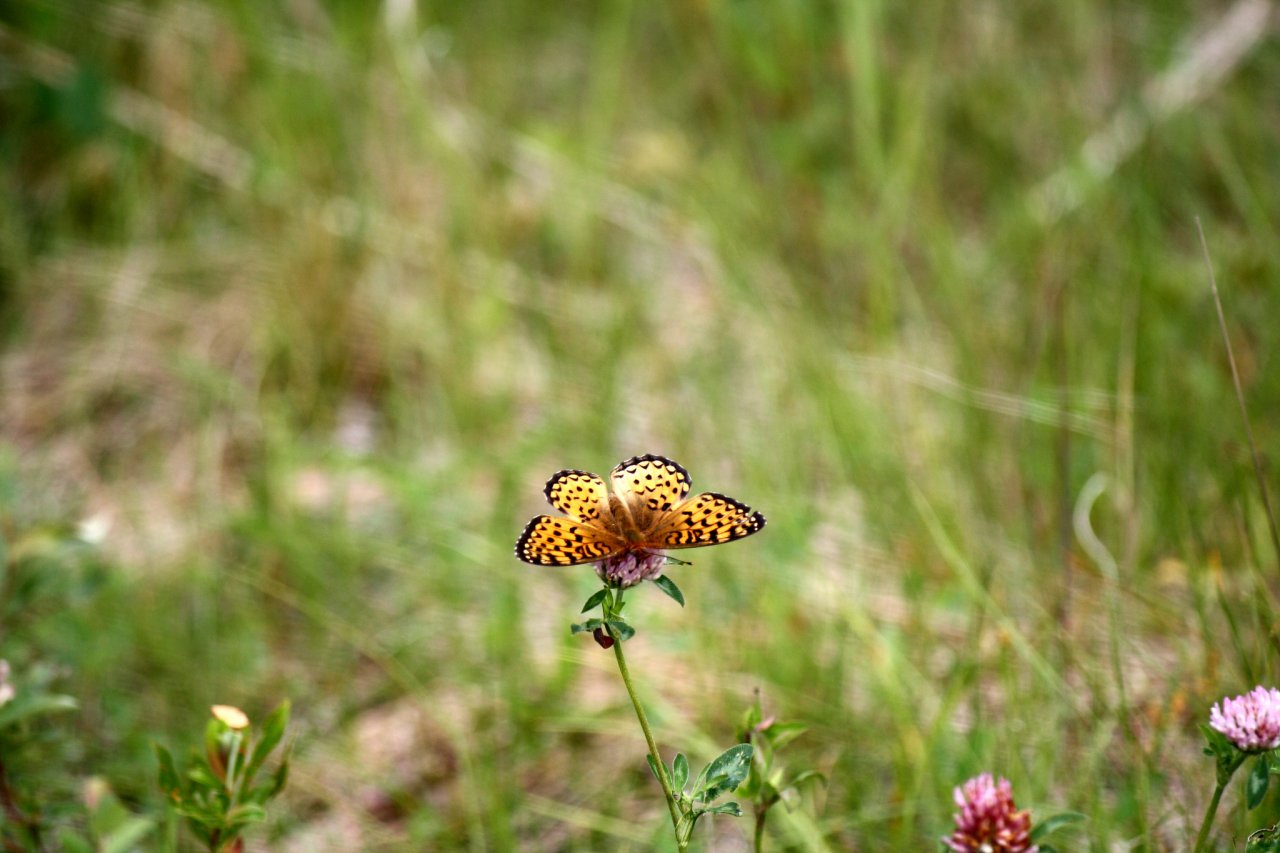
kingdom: Animalia
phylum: Arthropoda
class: Insecta
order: Lepidoptera
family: Nymphalidae
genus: Speyeria
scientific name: Speyeria atlantis
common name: Atlantis Fritillary
